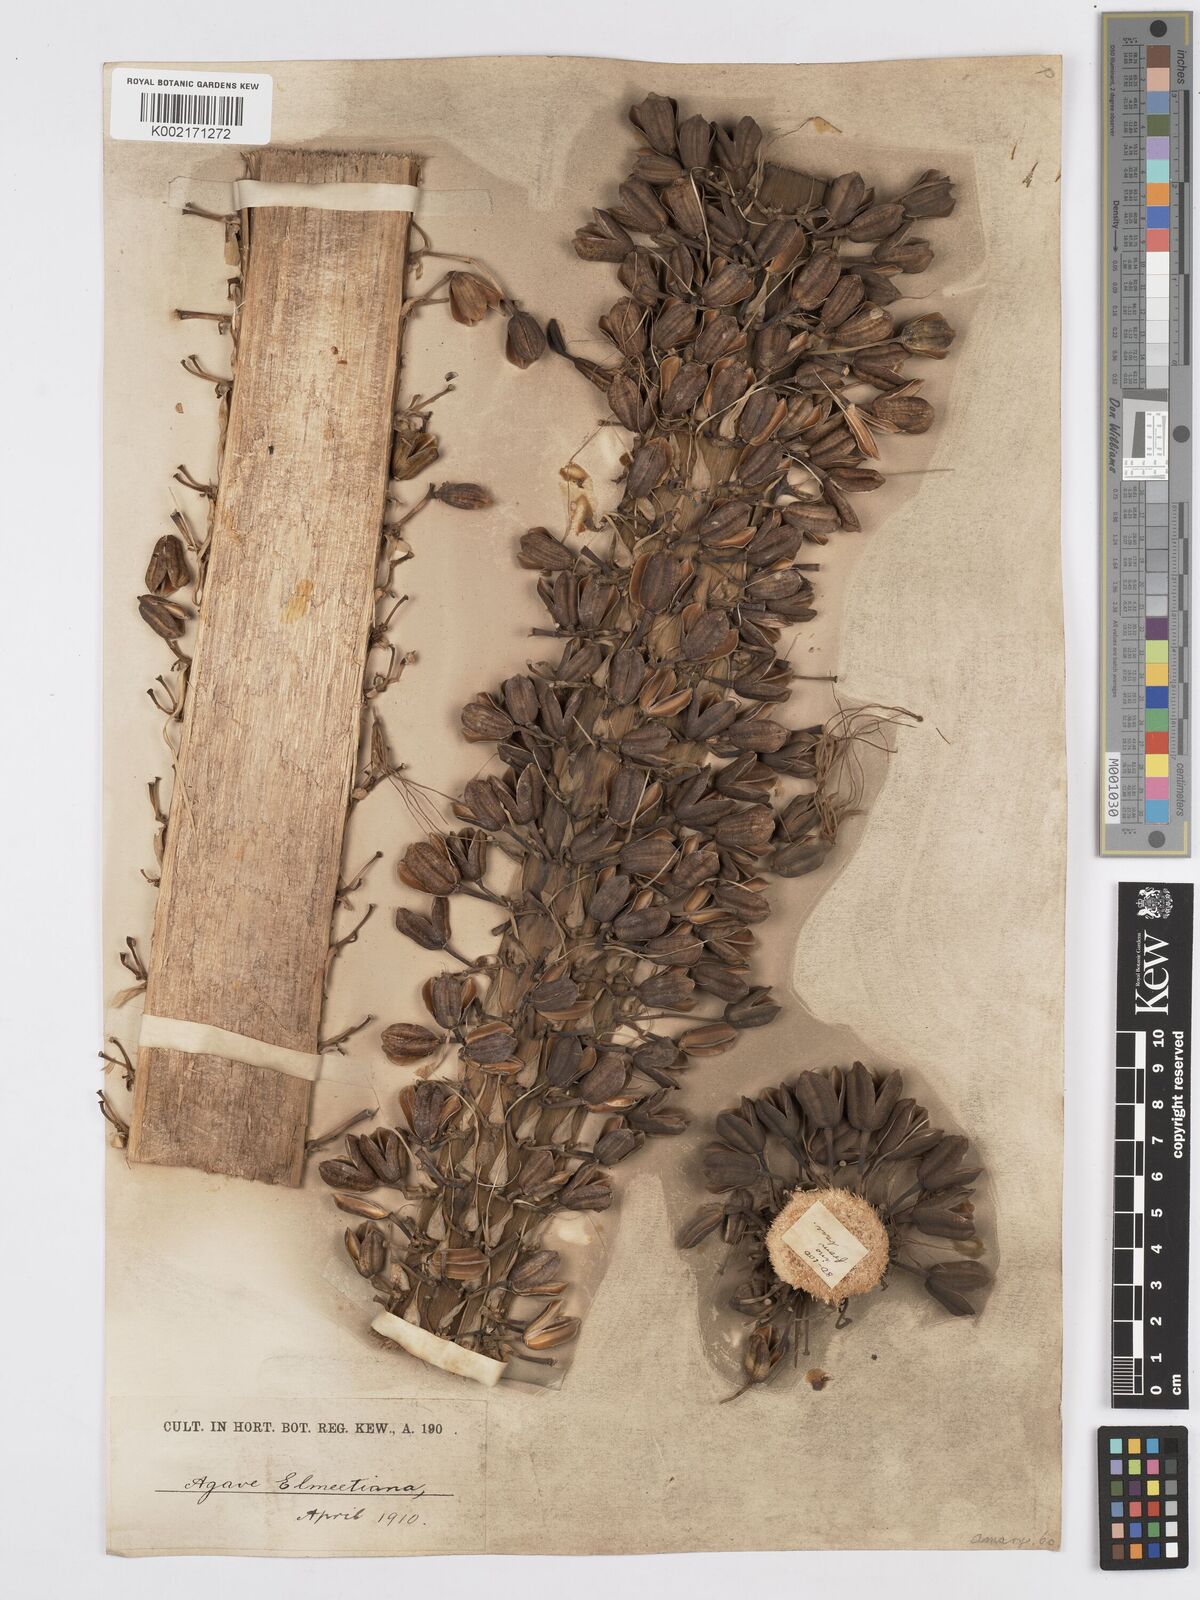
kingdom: Plantae
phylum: Tracheophyta
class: Liliopsida
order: Asparagales
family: Asparagaceae
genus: Agave
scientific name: Agave ellemeetiana
